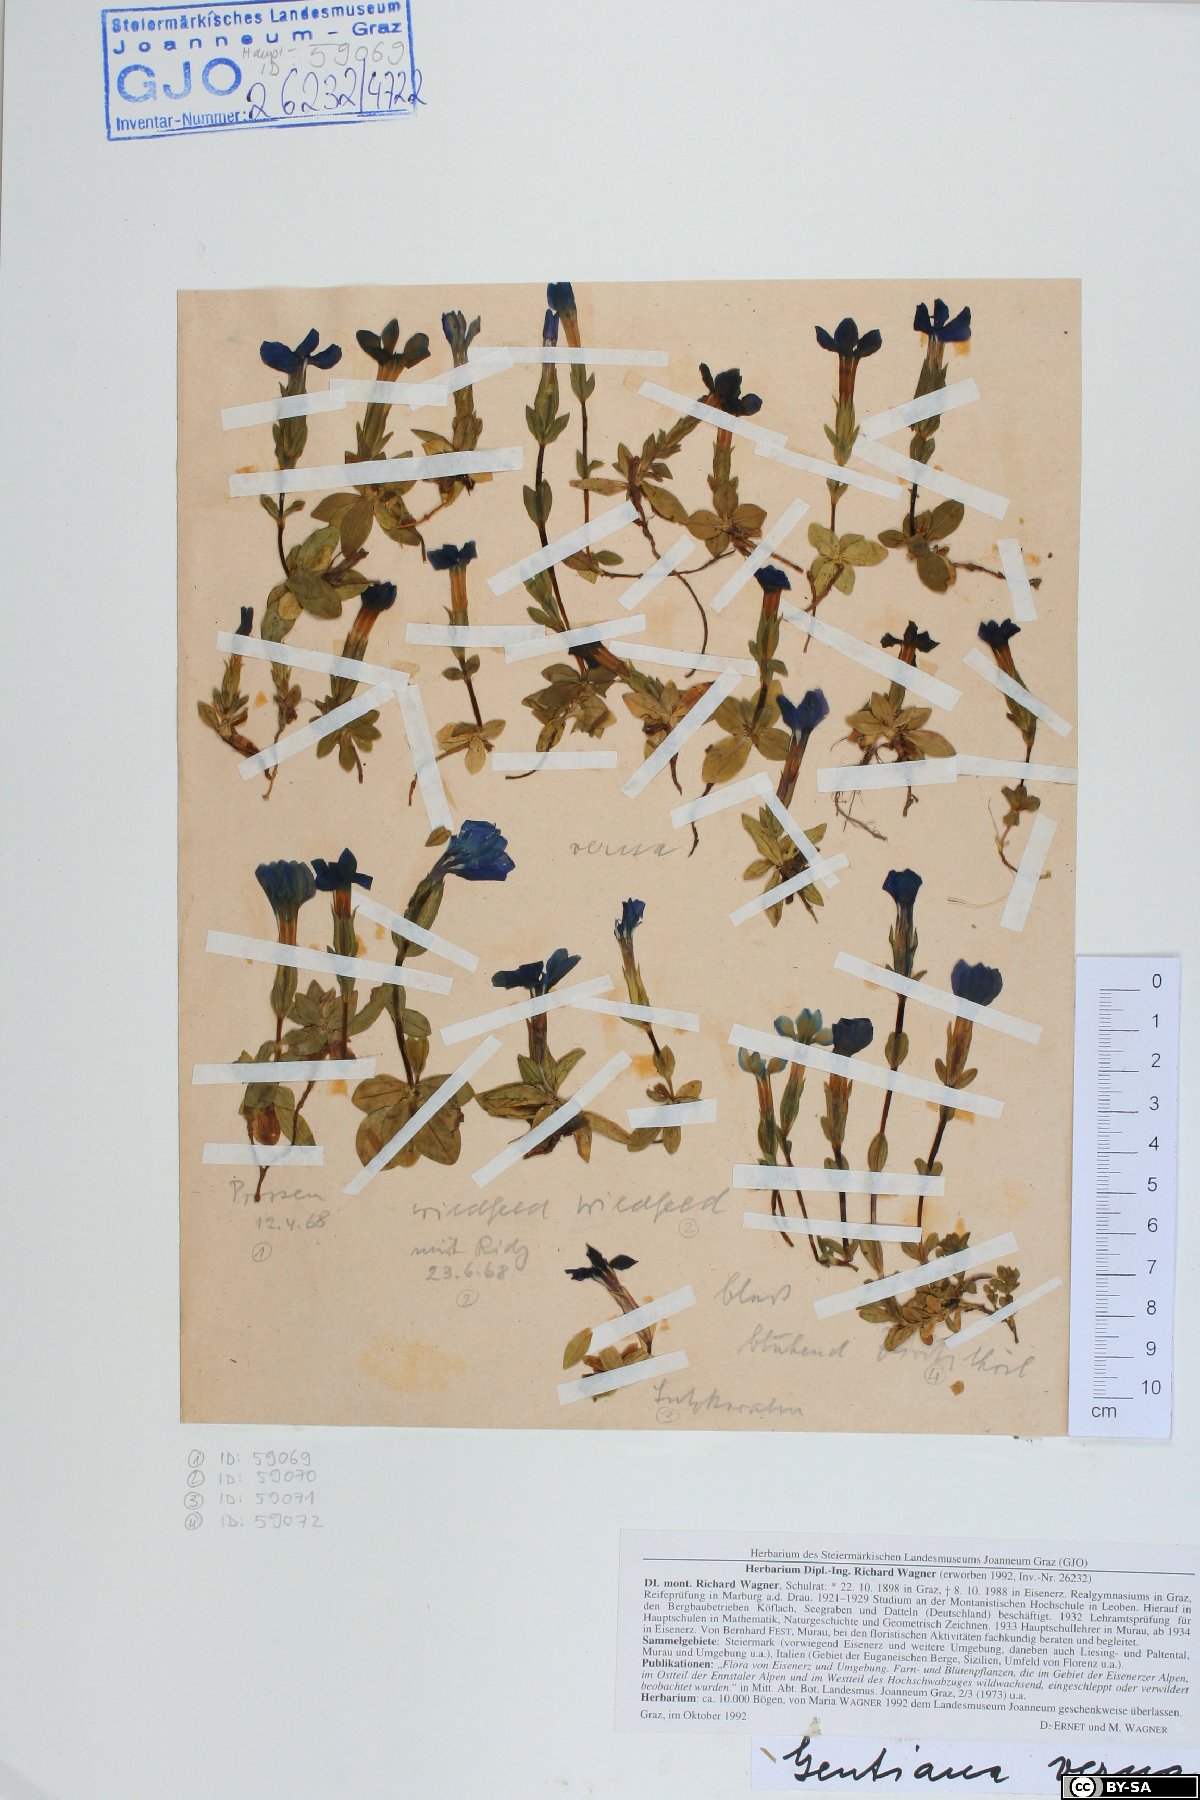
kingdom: Plantae
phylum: Tracheophyta
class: Magnoliopsida
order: Gentianales
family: Gentianaceae
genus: Gentiana
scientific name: Gentiana verna
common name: Spring gentian
